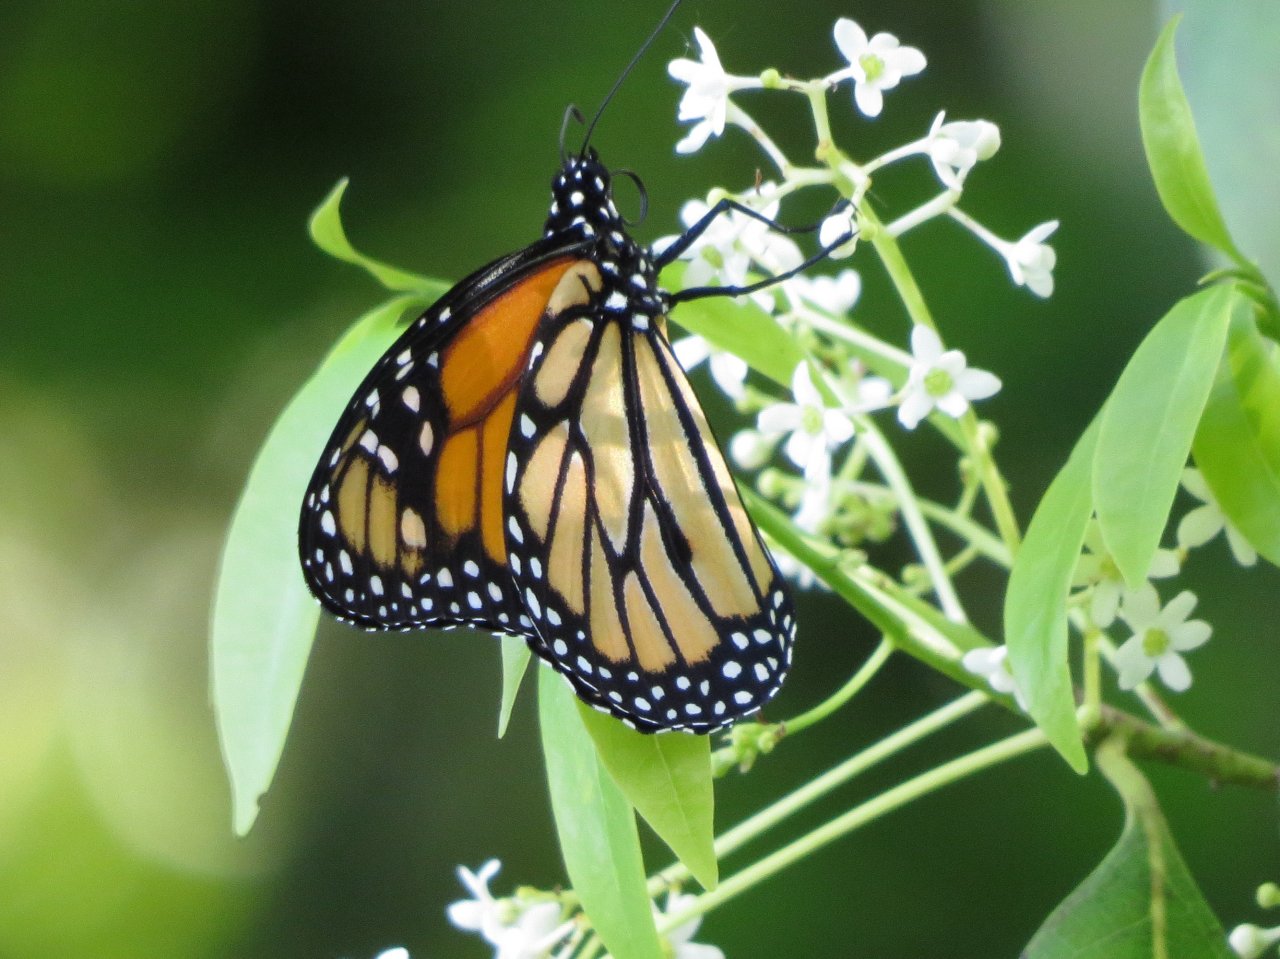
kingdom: Animalia
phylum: Arthropoda
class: Insecta
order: Lepidoptera
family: Nymphalidae
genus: Danaus
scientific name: Danaus plexippus
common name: Monarch
